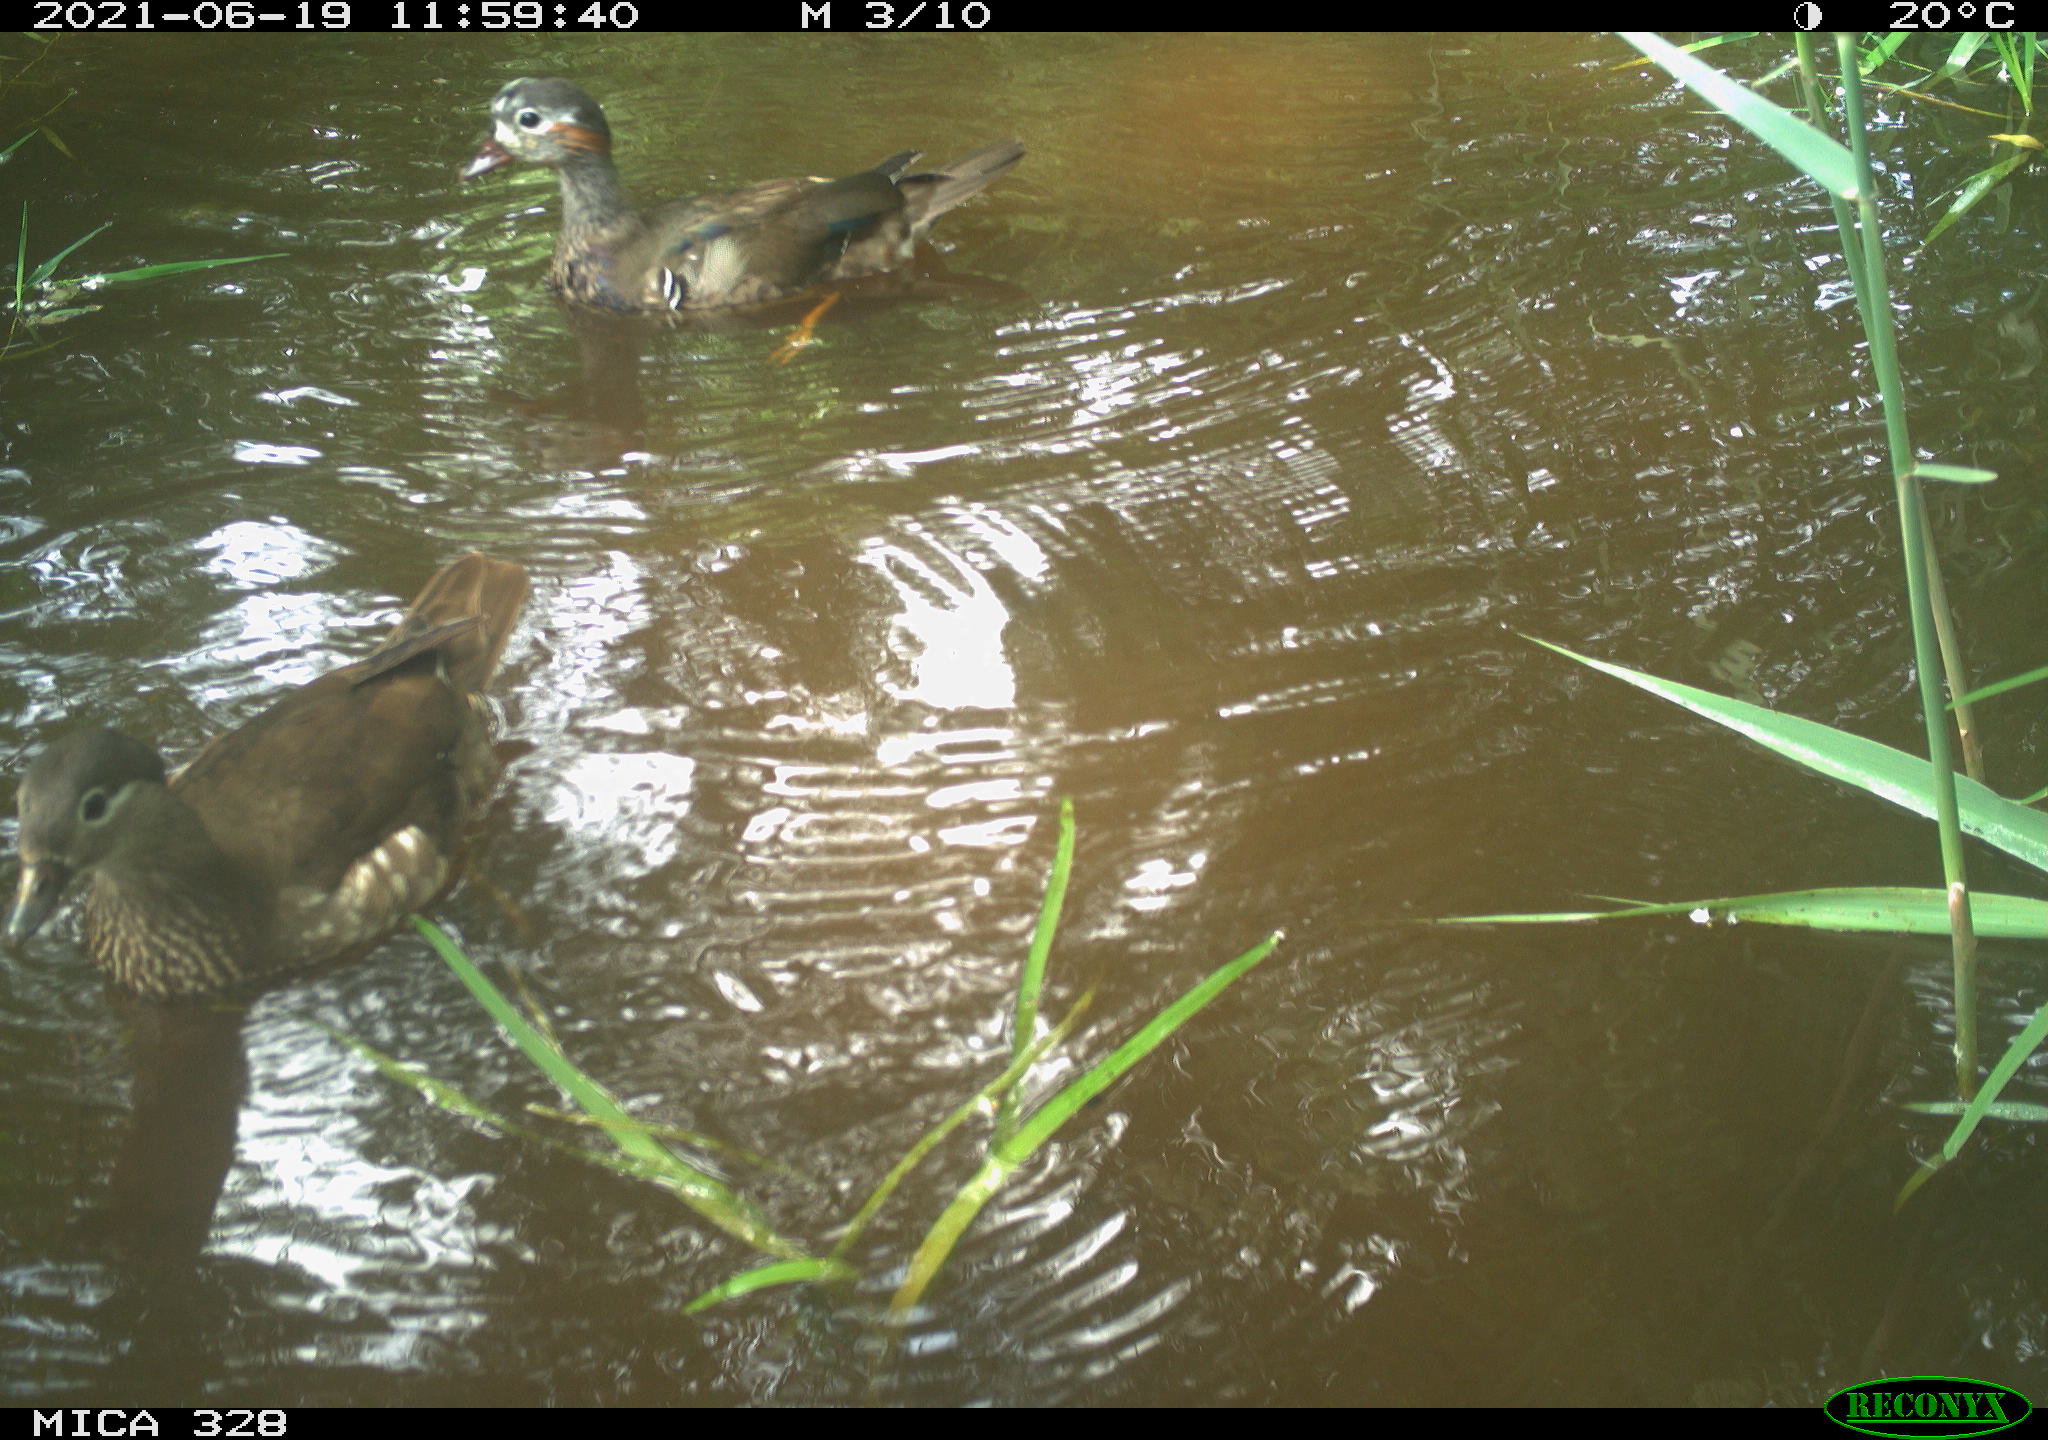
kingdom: Animalia
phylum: Chordata
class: Aves
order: Anseriformes
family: Anatidae
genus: Aix
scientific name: Aix galericulata
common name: Mandarin duck
